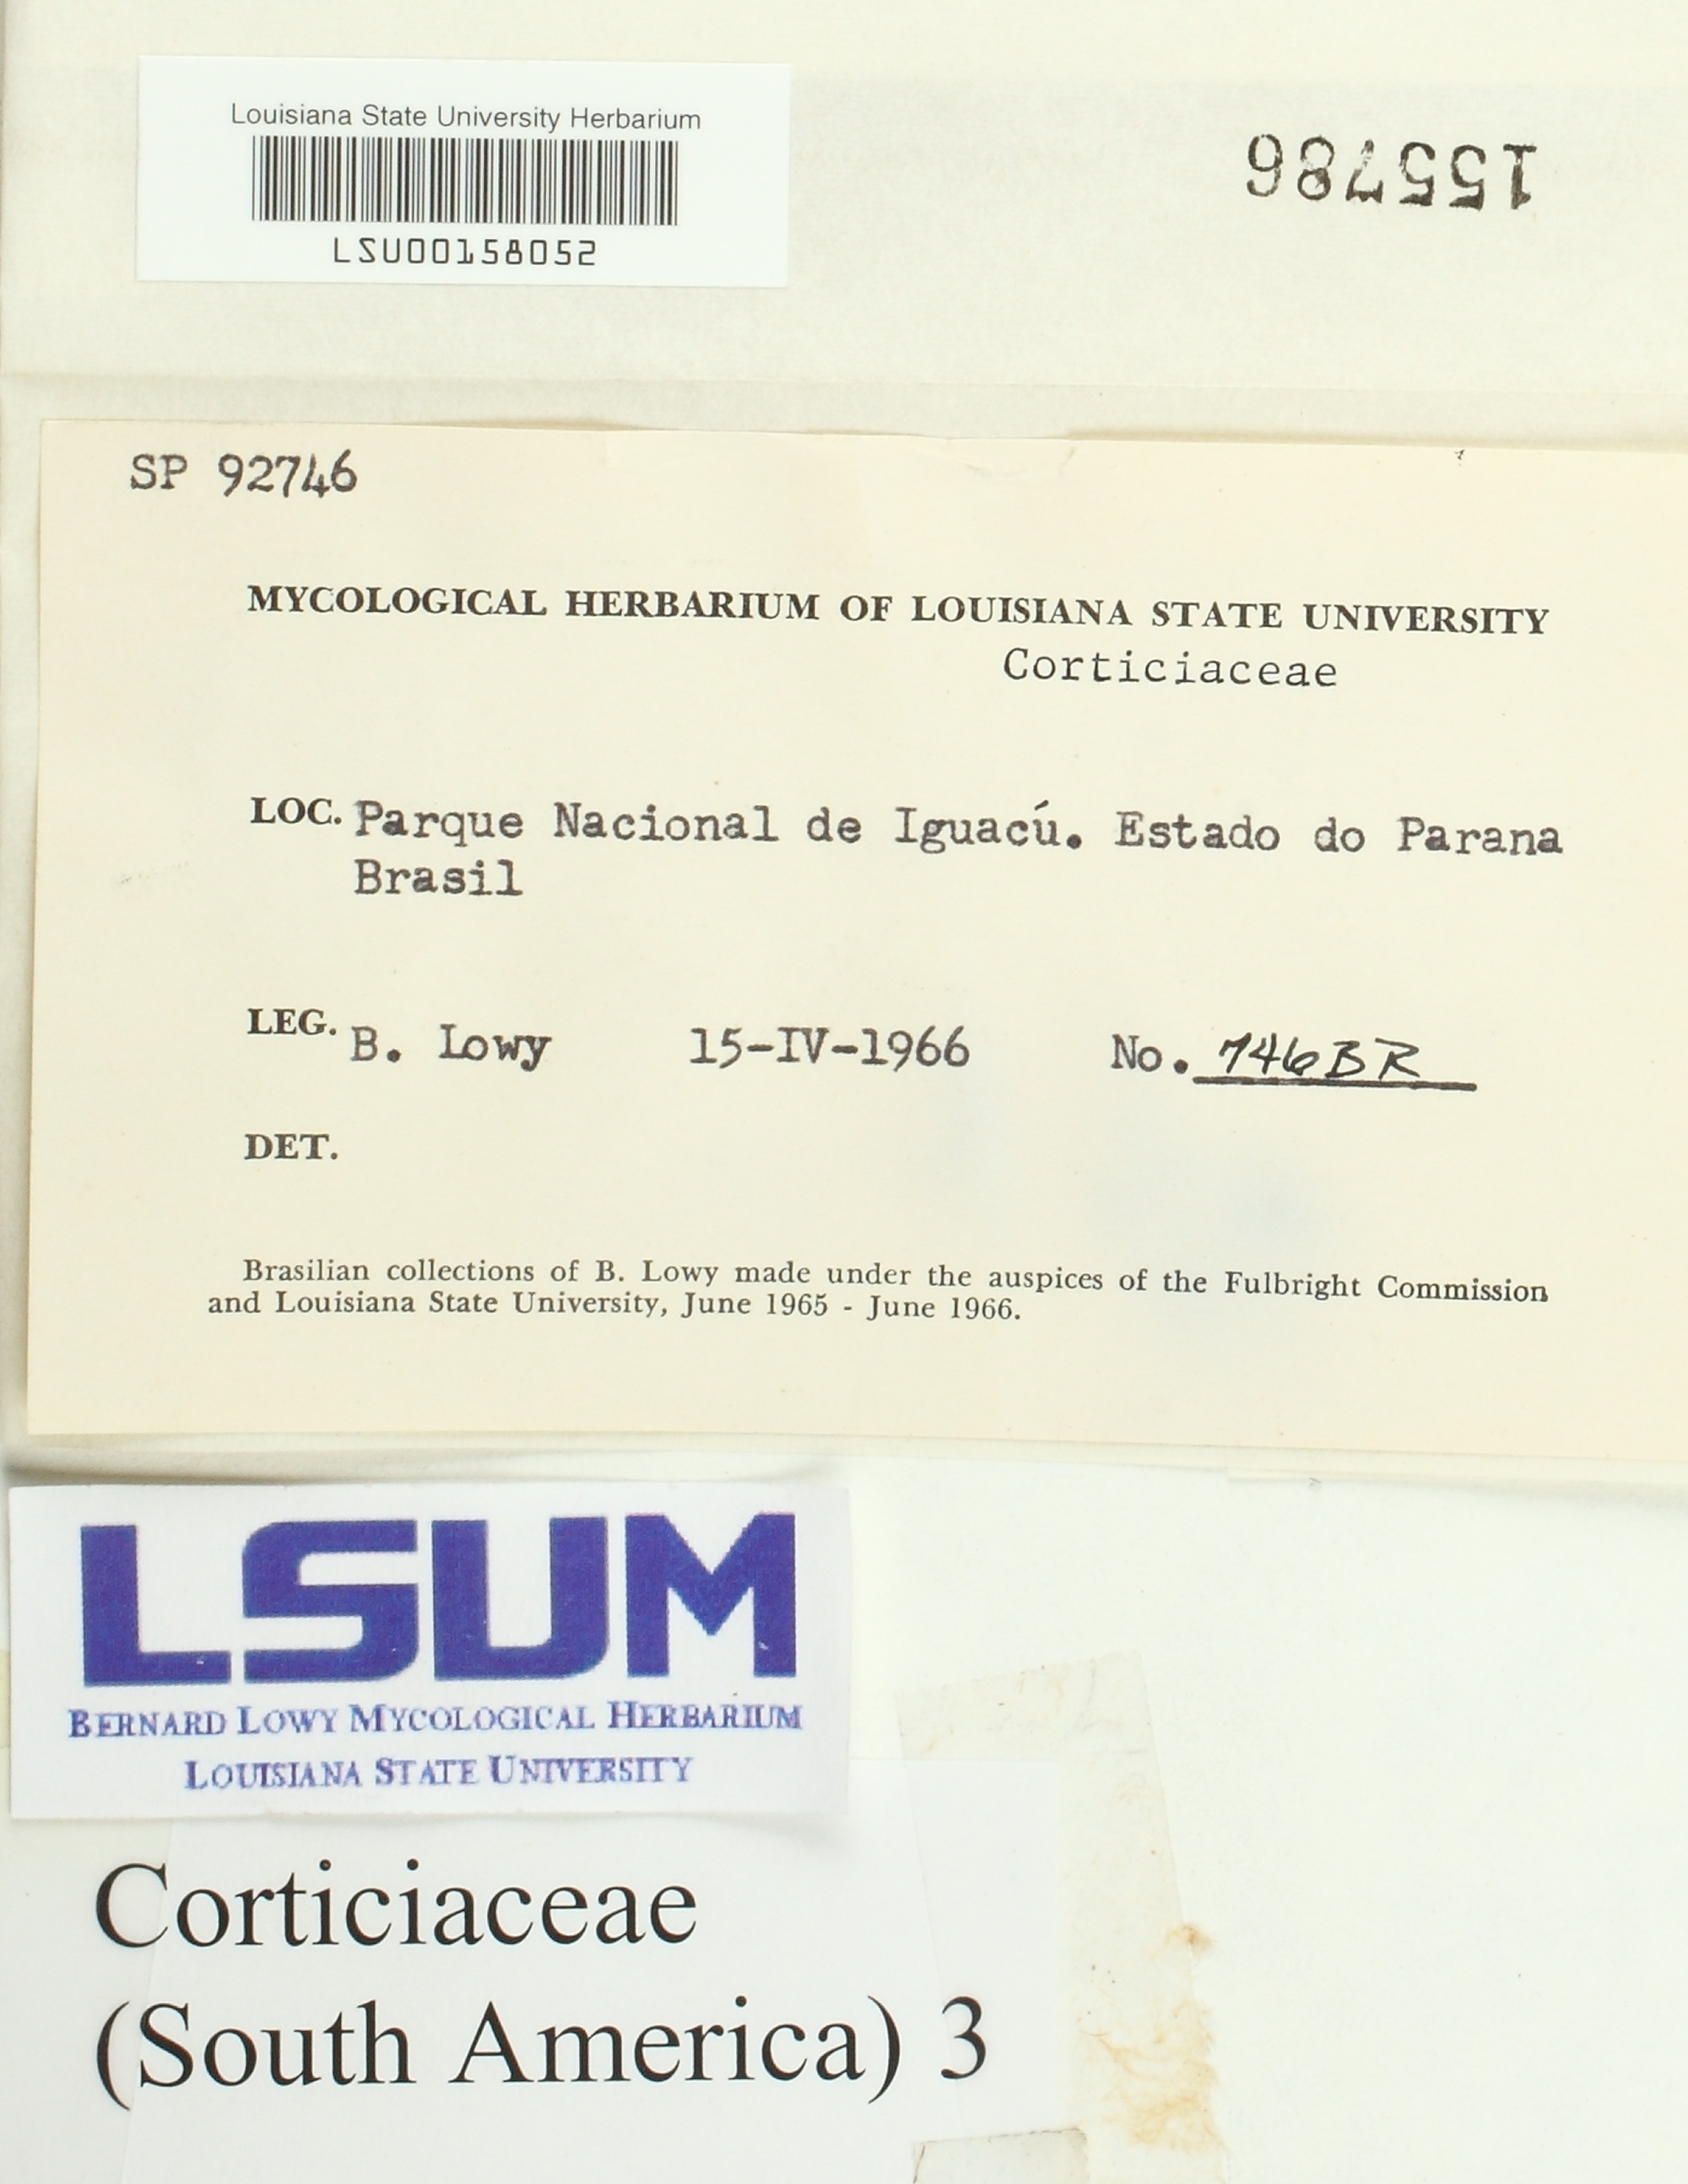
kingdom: Fungi
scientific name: Fungi
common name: Fungi
